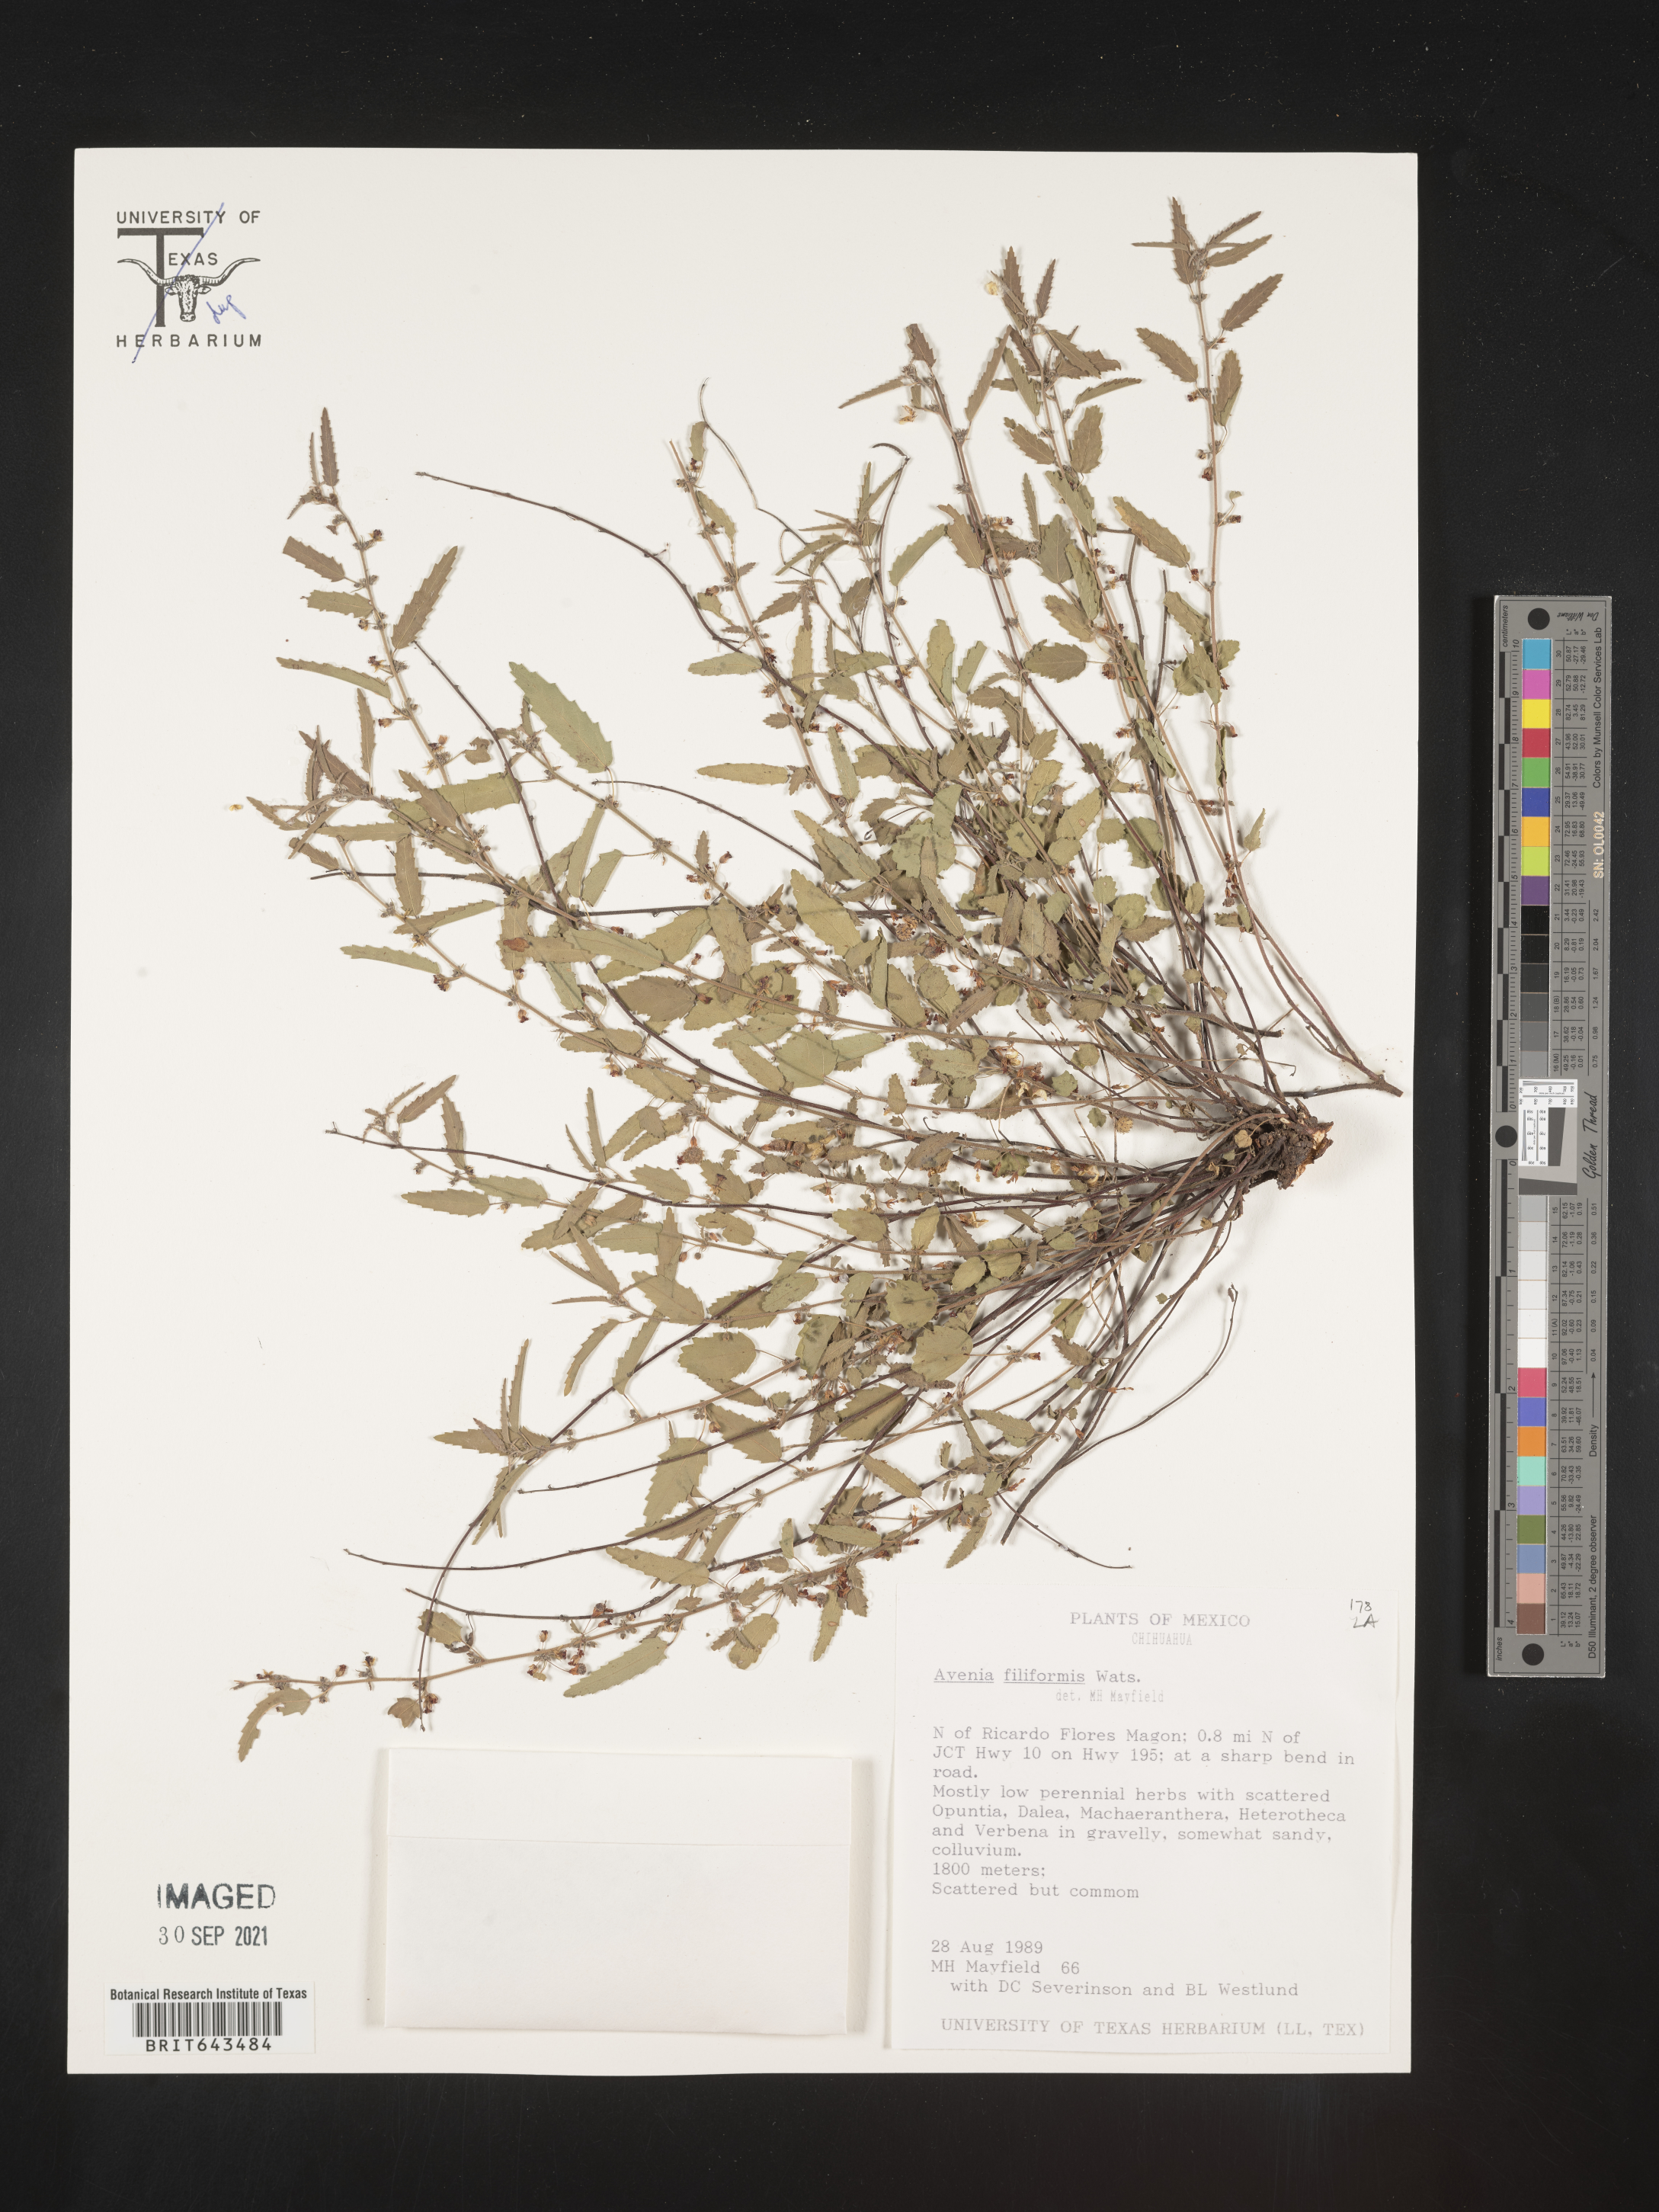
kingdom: Plantae
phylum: Tracheophyta
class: Magnoliopsida
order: Malvales
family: Malvaceae
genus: Ayenia
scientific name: Ayenia
